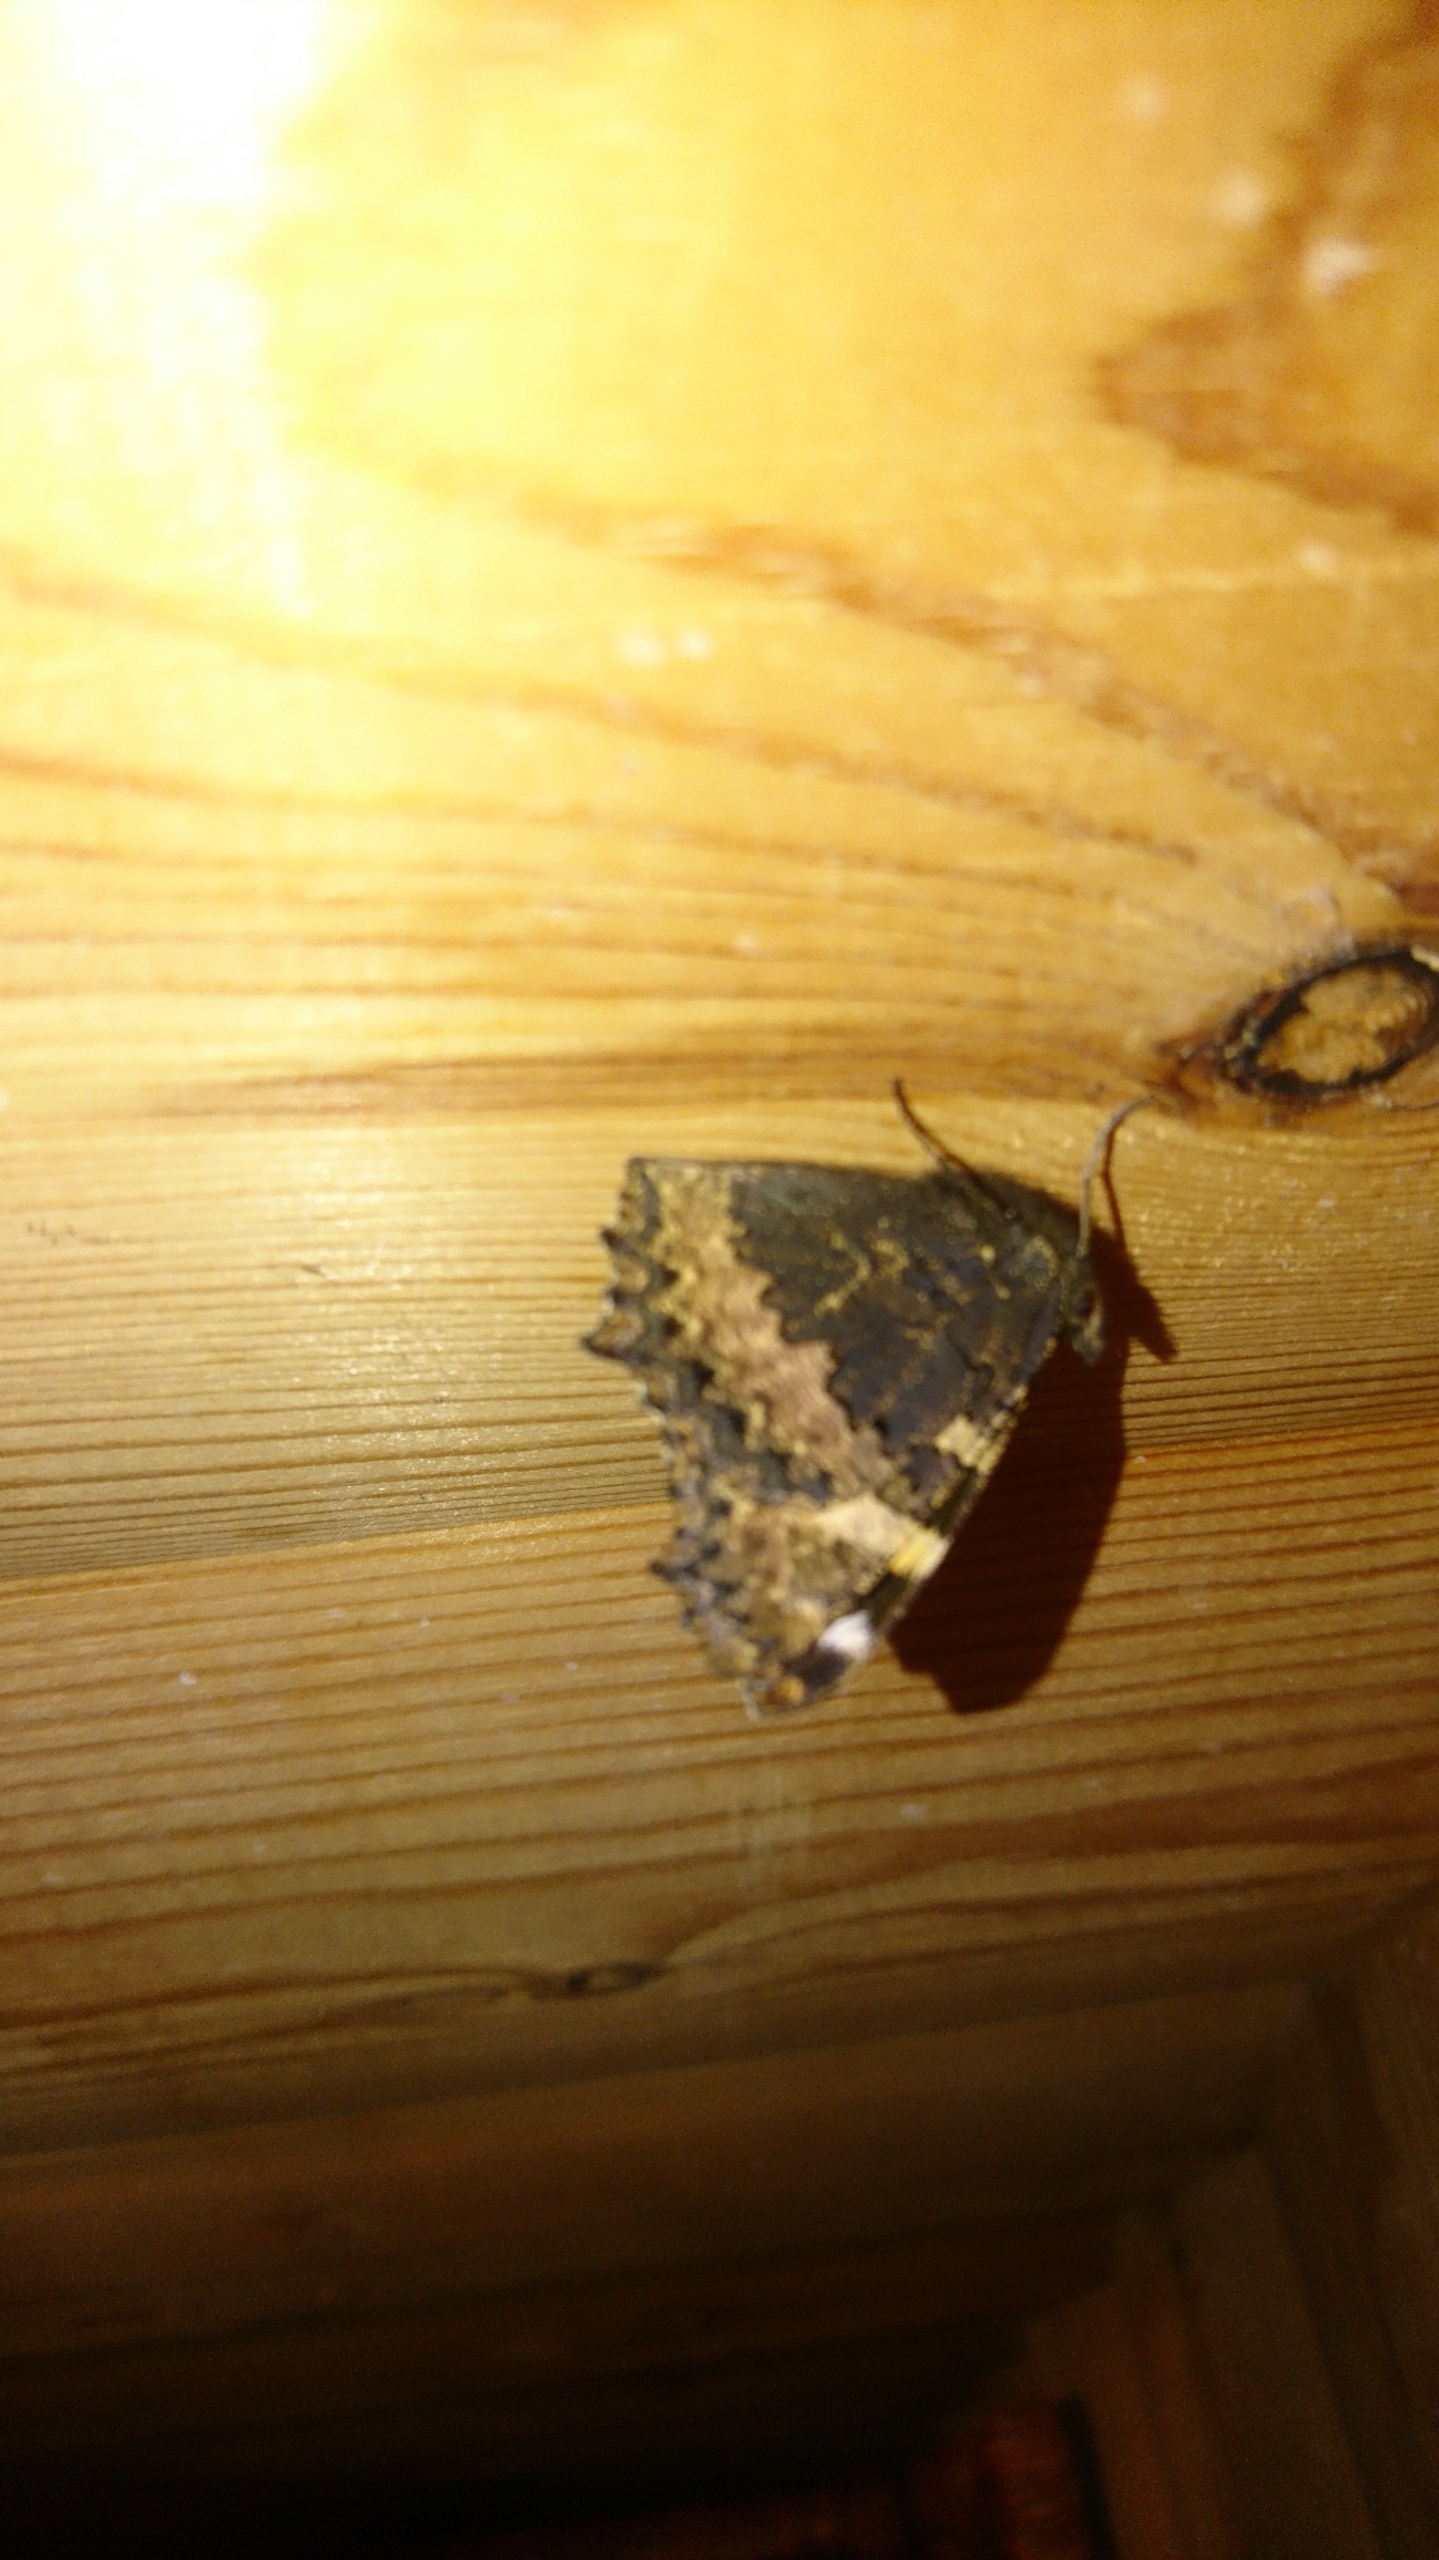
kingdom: Animalia
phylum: Arthropoda
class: Insecta
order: Lepidoptera
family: Nymphalidae
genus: Aglais
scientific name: Aglais urticae
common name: Nældens takvinge
